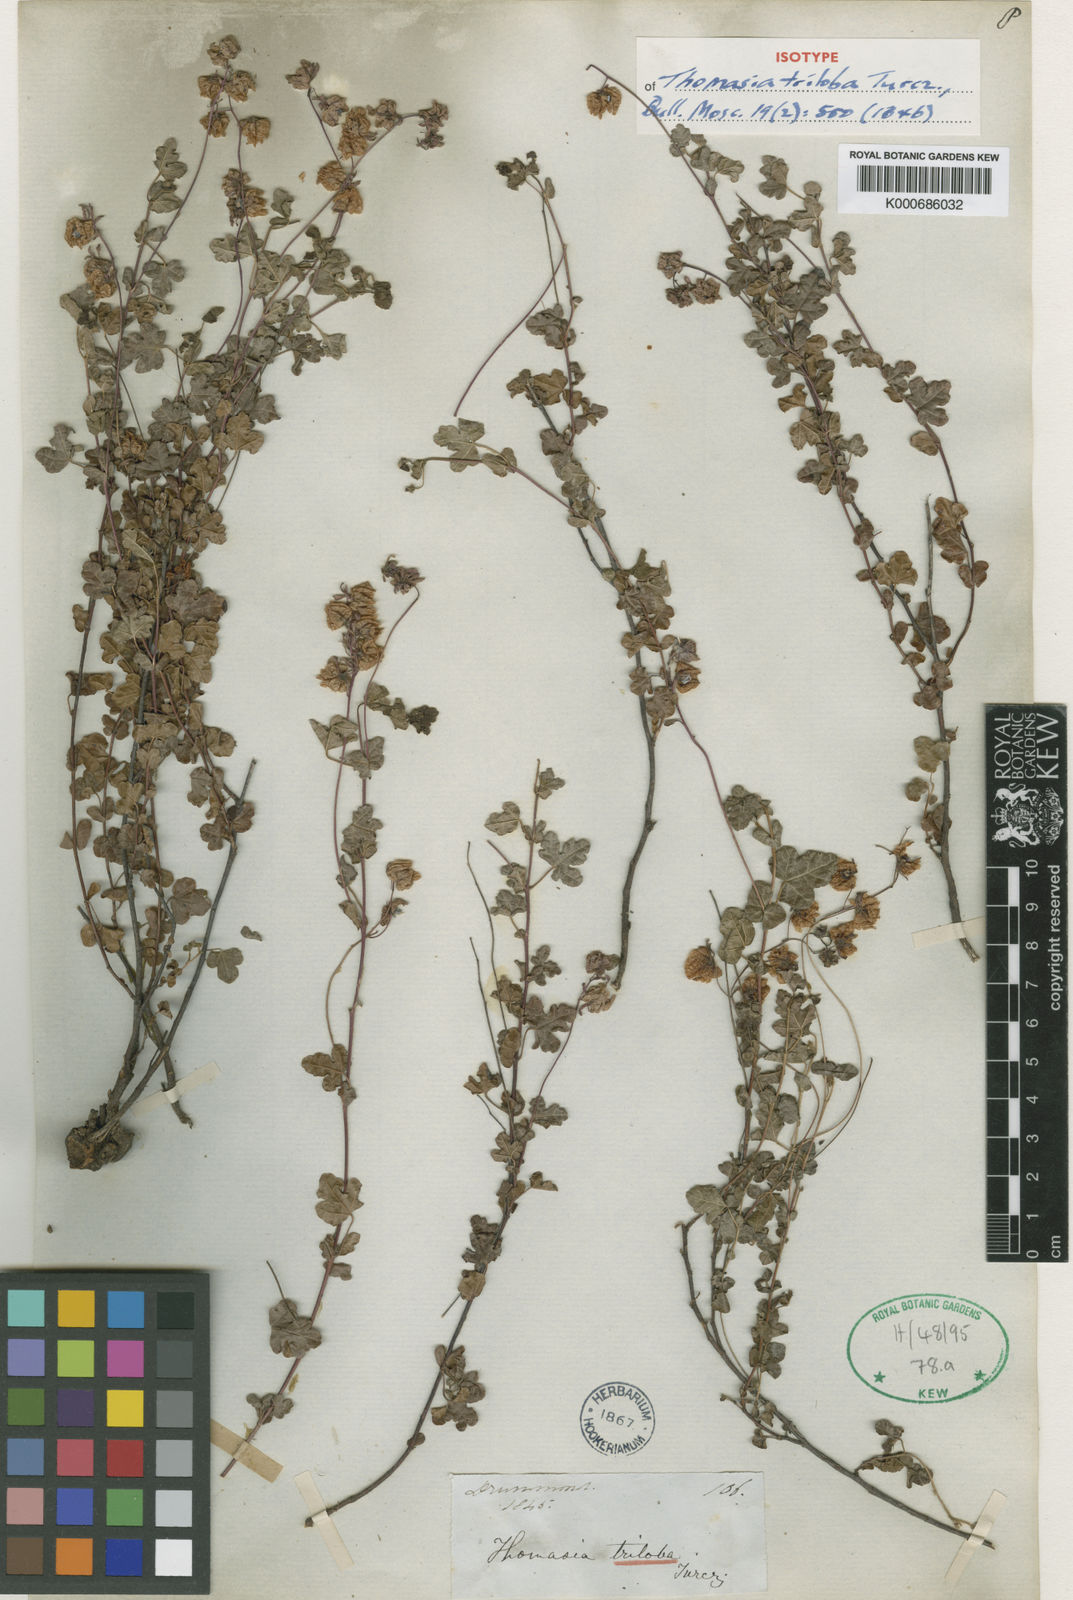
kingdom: Plantae
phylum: Tracheophyta
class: Magnoliopsida
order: Malvales
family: Malvaceae
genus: Thomasia
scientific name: Thomasia triloba
